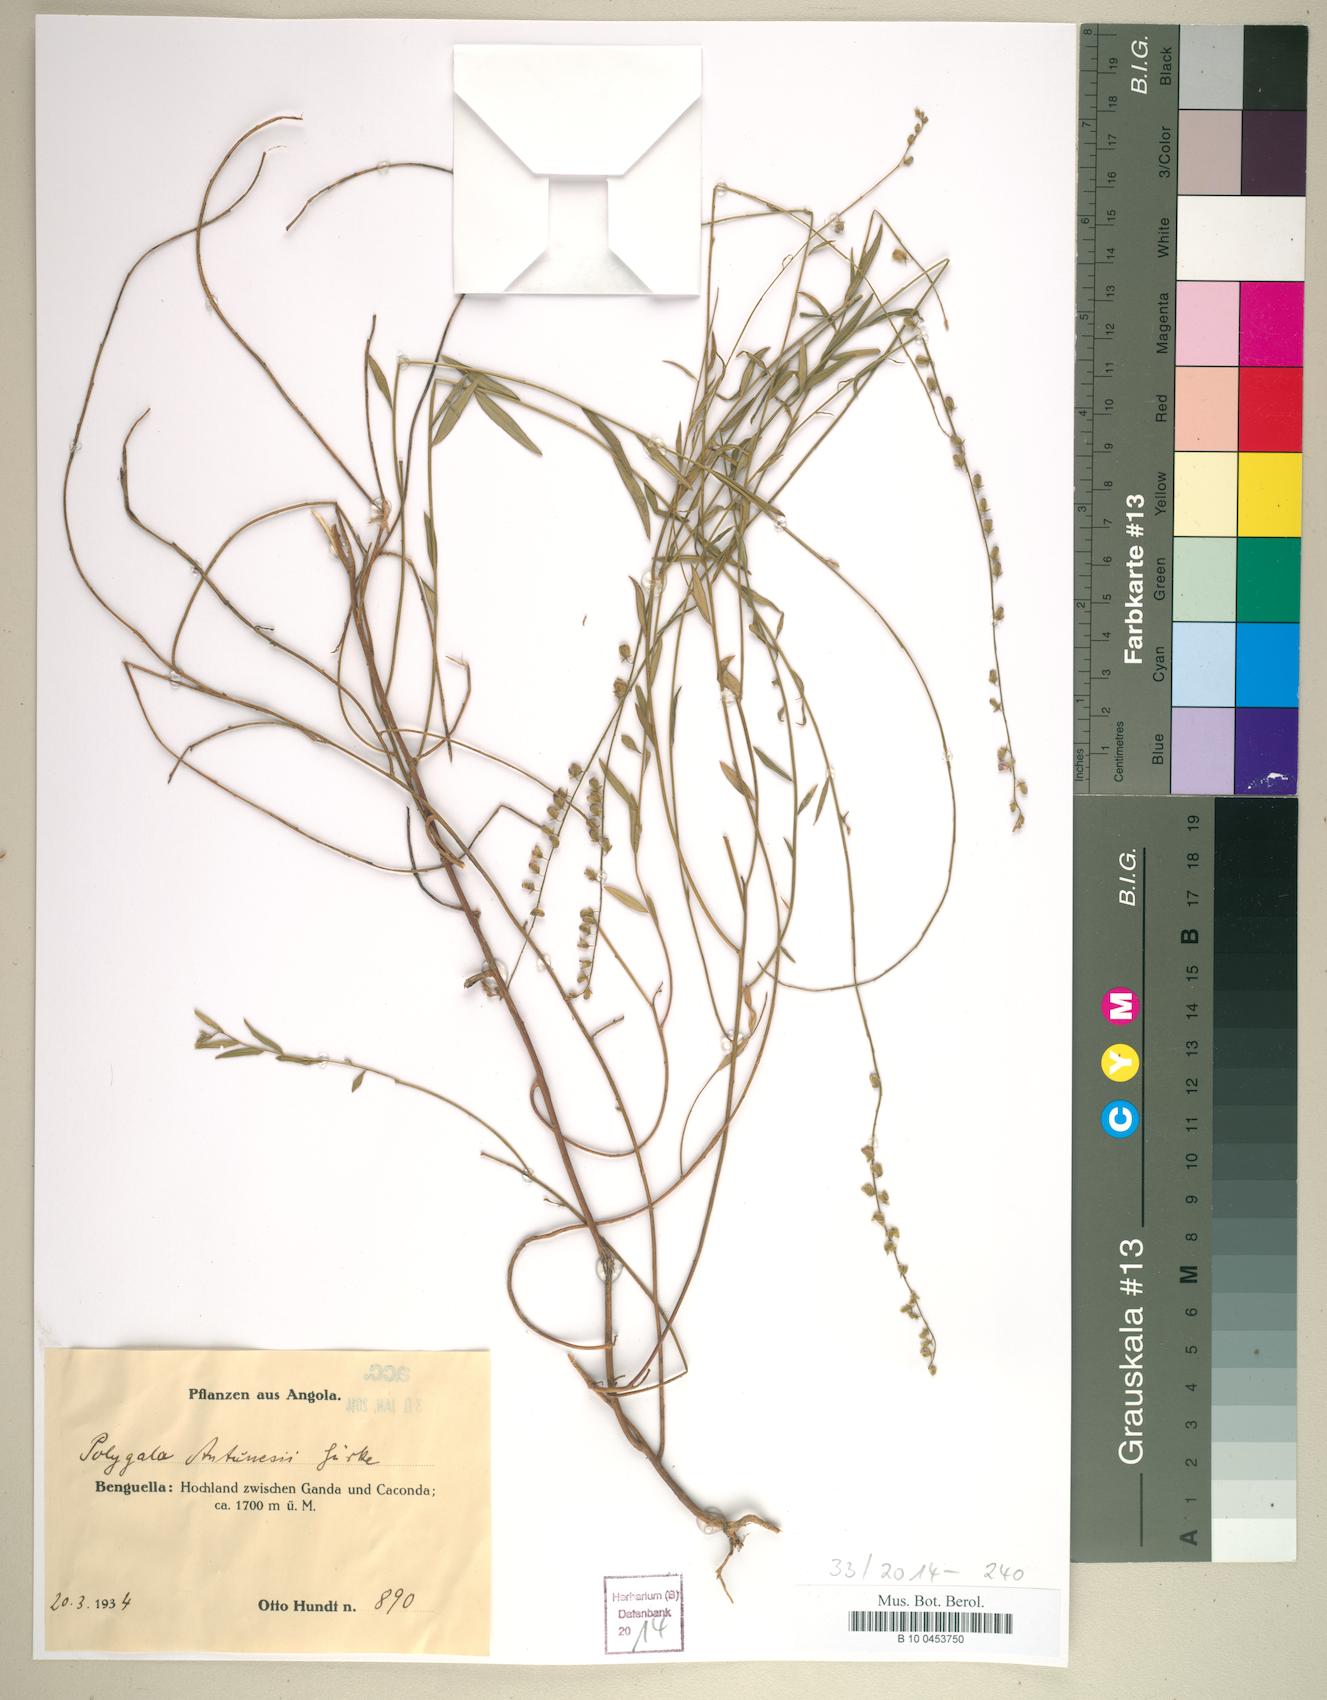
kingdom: Plantae
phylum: Tracheophyta
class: Magnoliopsida
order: Fabales
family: Polygalaceae
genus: Polygala
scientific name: Polygala antunesii
